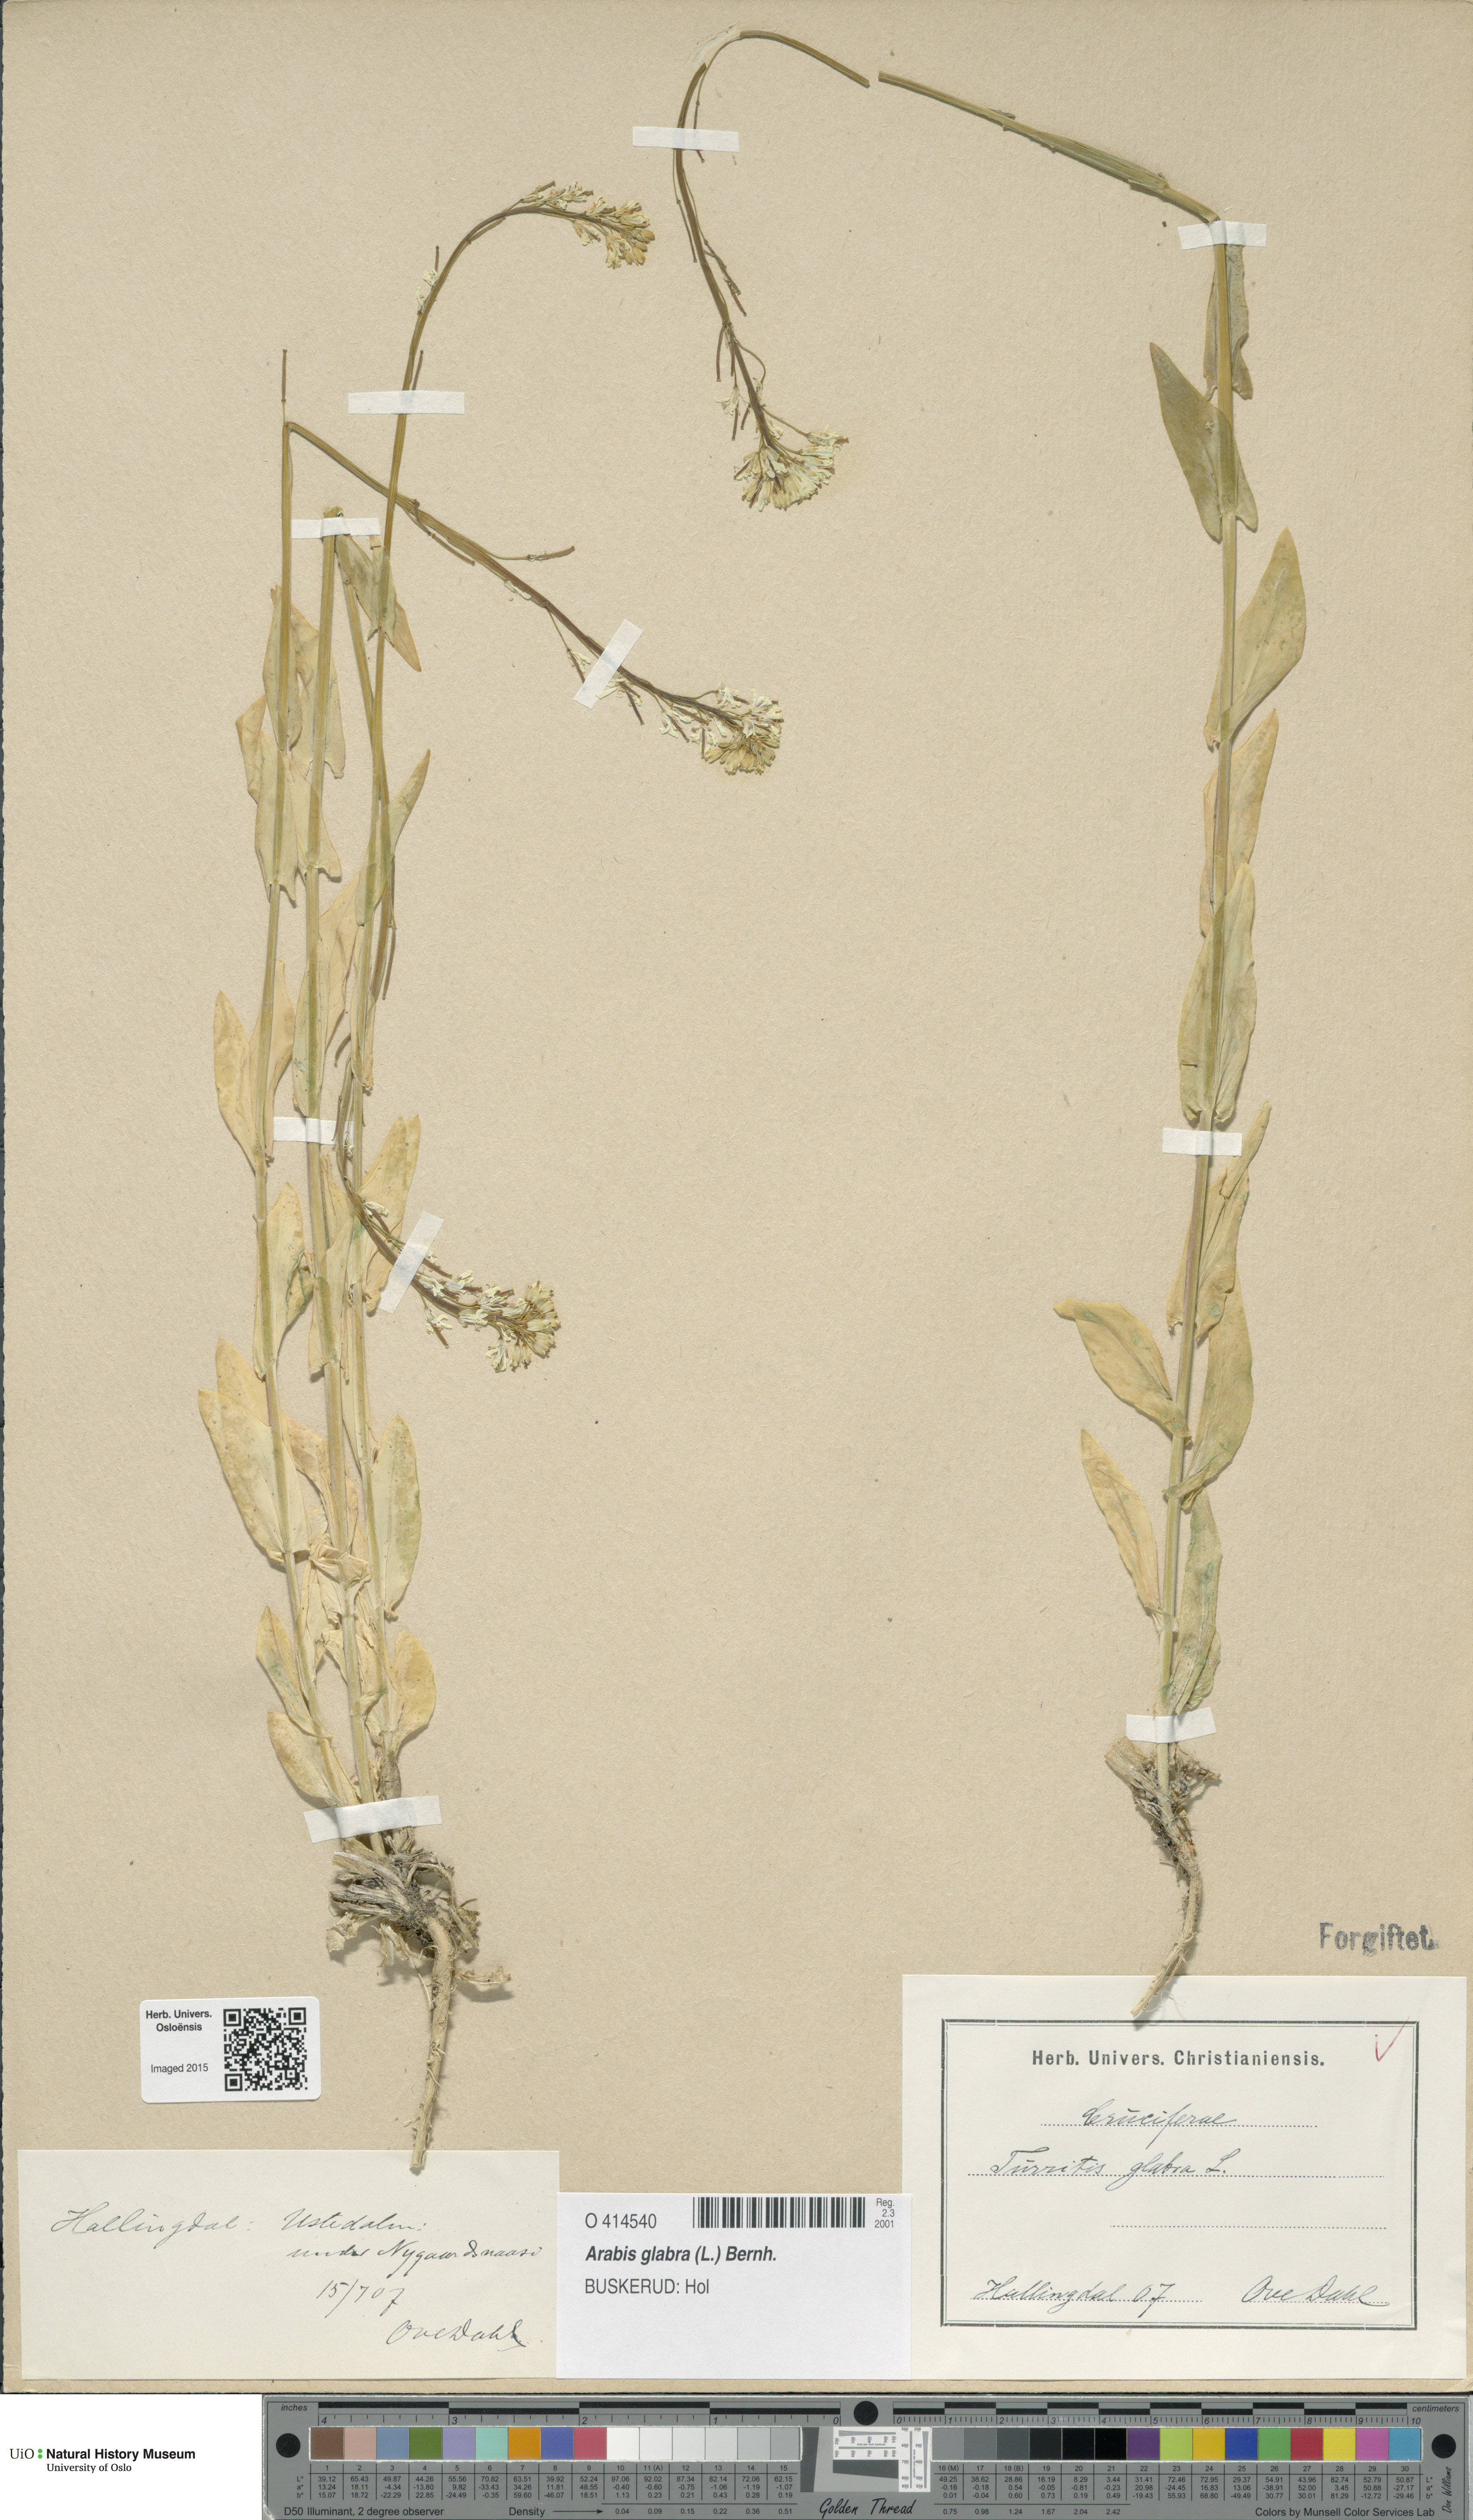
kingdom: Plantae
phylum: Tracheophyta
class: Magnoliopsida
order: Brassicales
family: Brassicaceae
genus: Turritis
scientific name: Turritis glabra
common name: Tower rockcress
